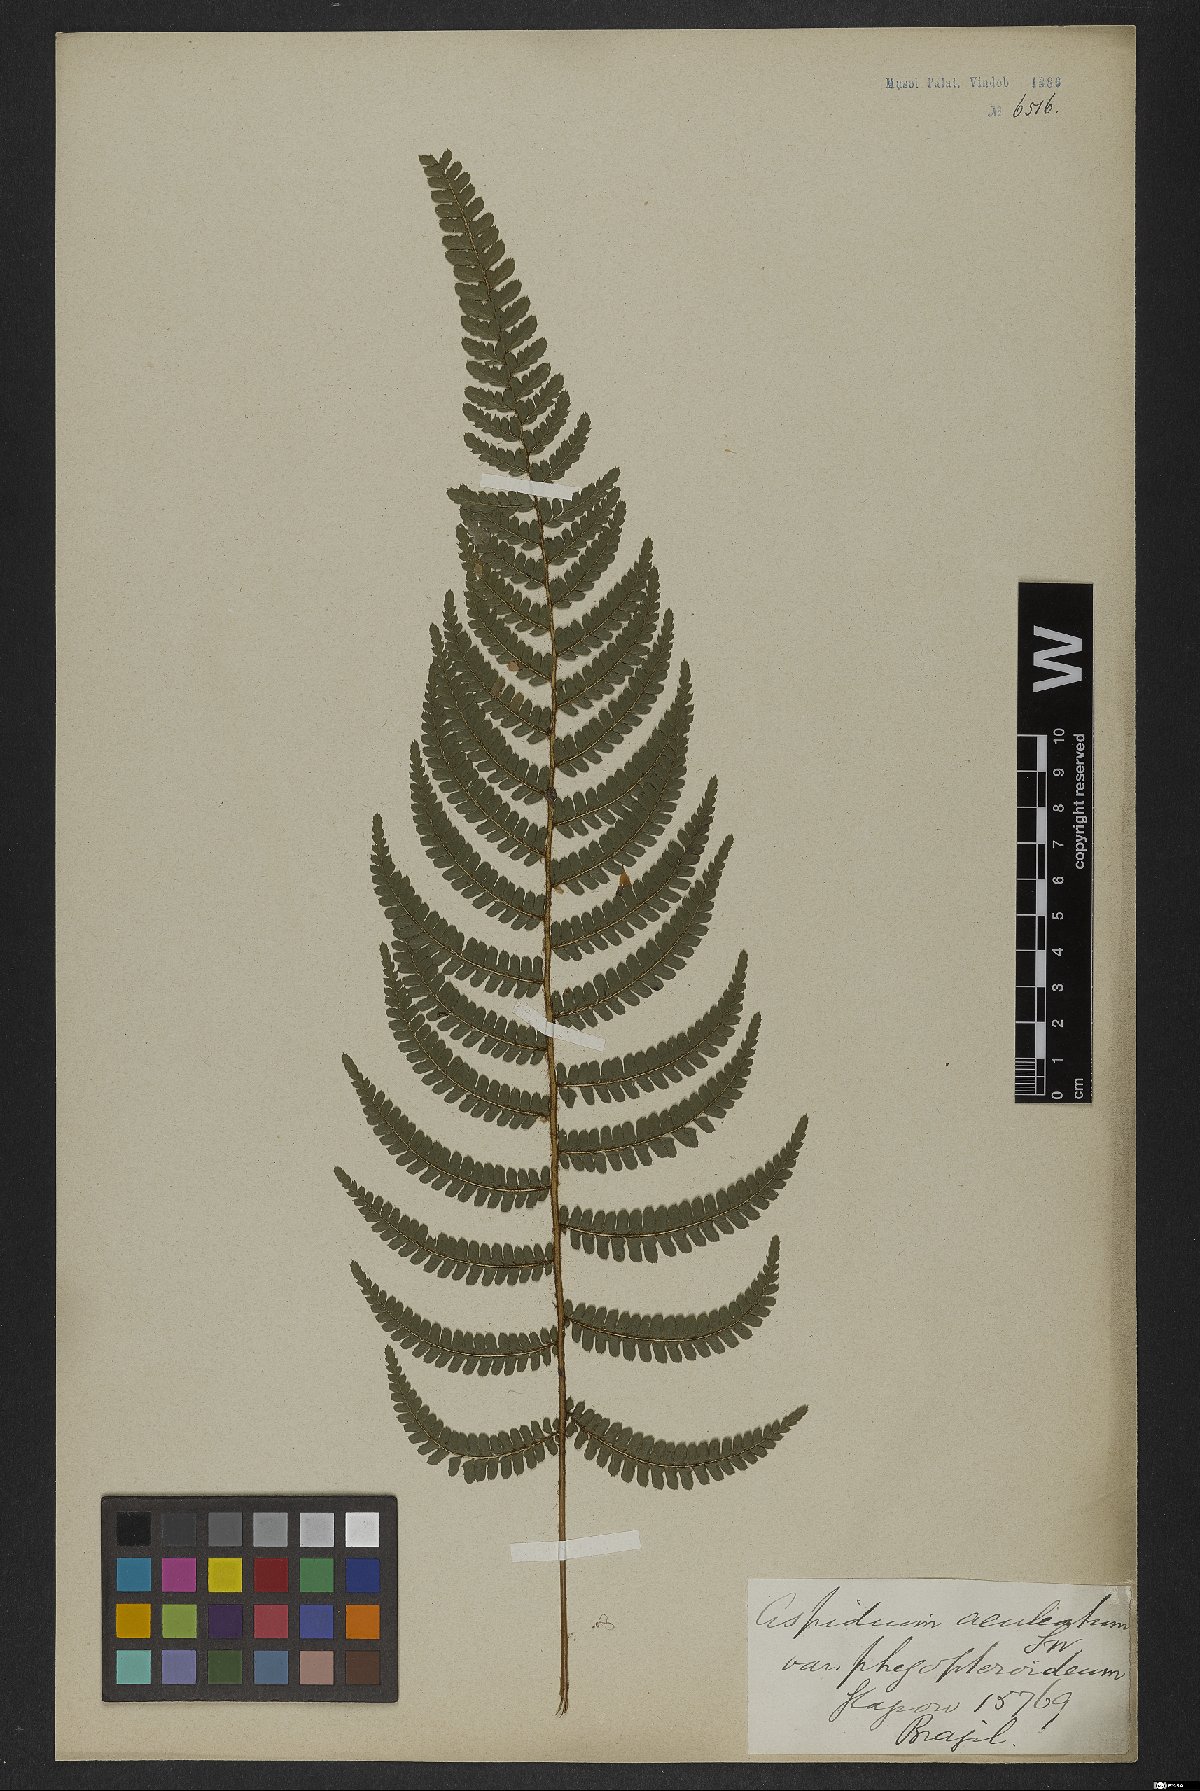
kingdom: Plantae
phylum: Tracheophyta
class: Polypodiopsida
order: Polypodiales
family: Dryopteridaceae
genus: Polystichum
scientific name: Polystichum aculeatum
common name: Hard shield-fern
